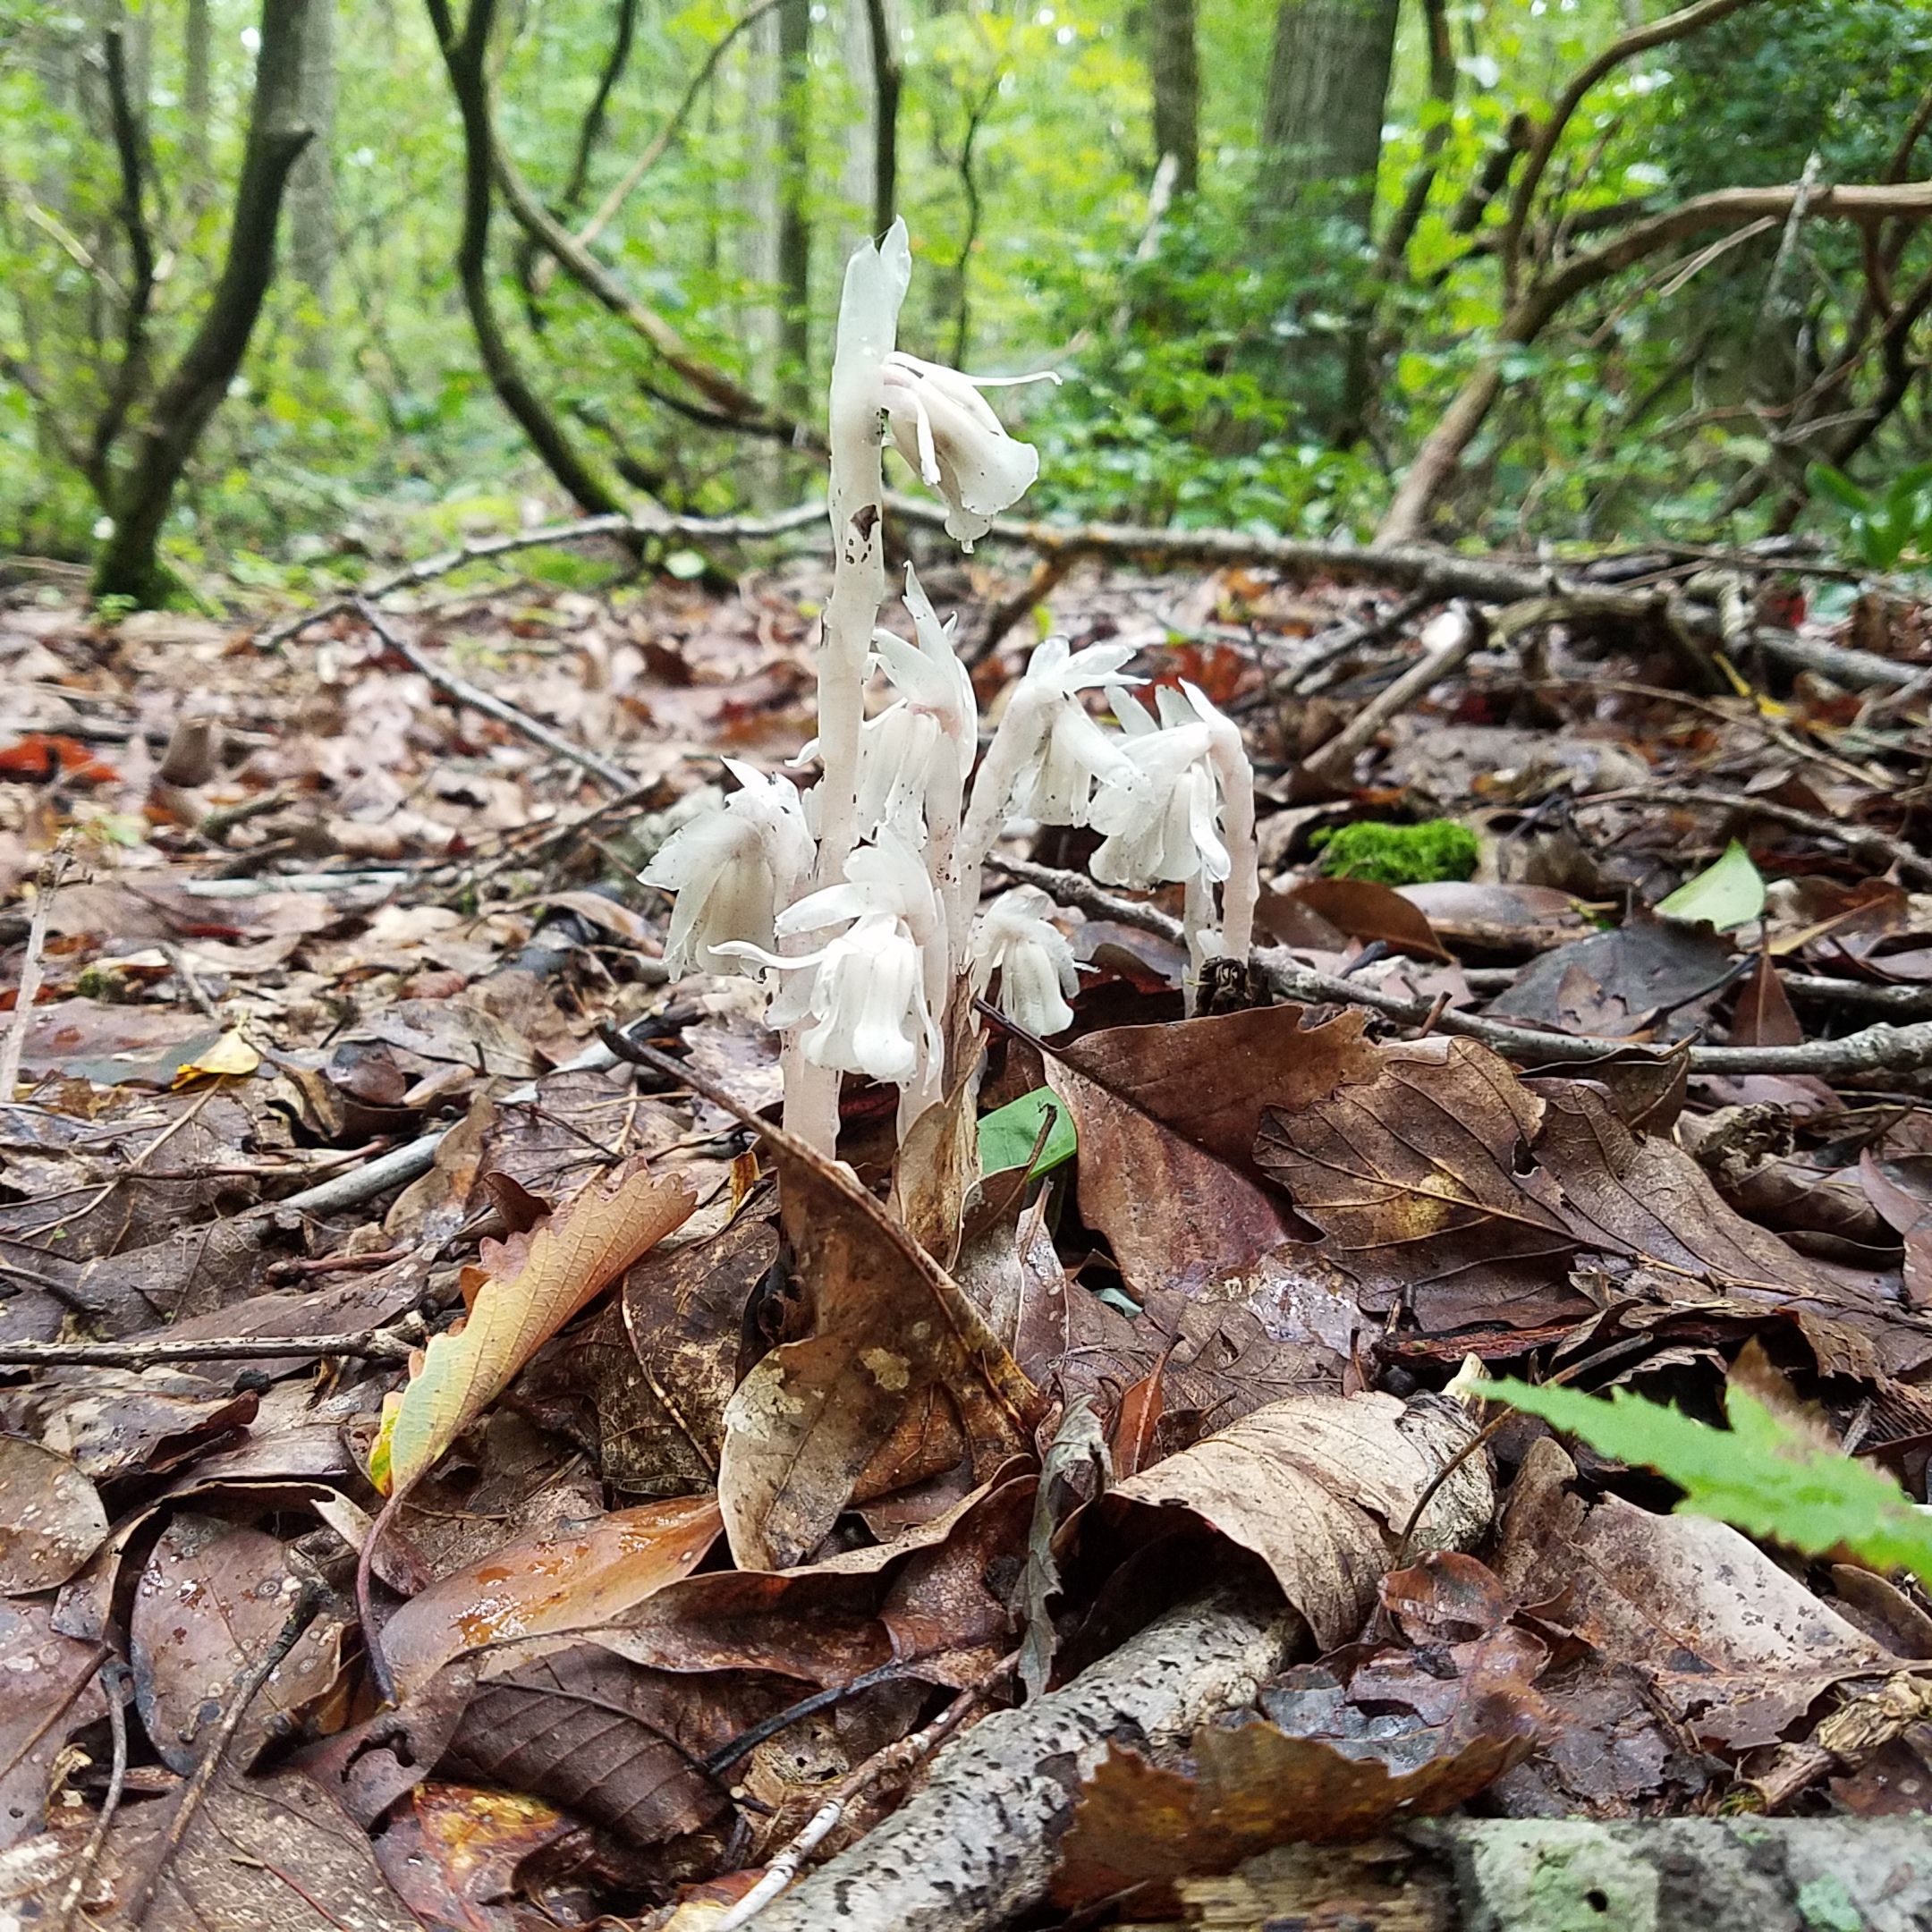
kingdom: Plantae
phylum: Tracheophyta
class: Magnoliopsida
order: Ericales
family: Ericaceae
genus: Monotropa
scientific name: Monotropa uniflora
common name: Indian pipe
